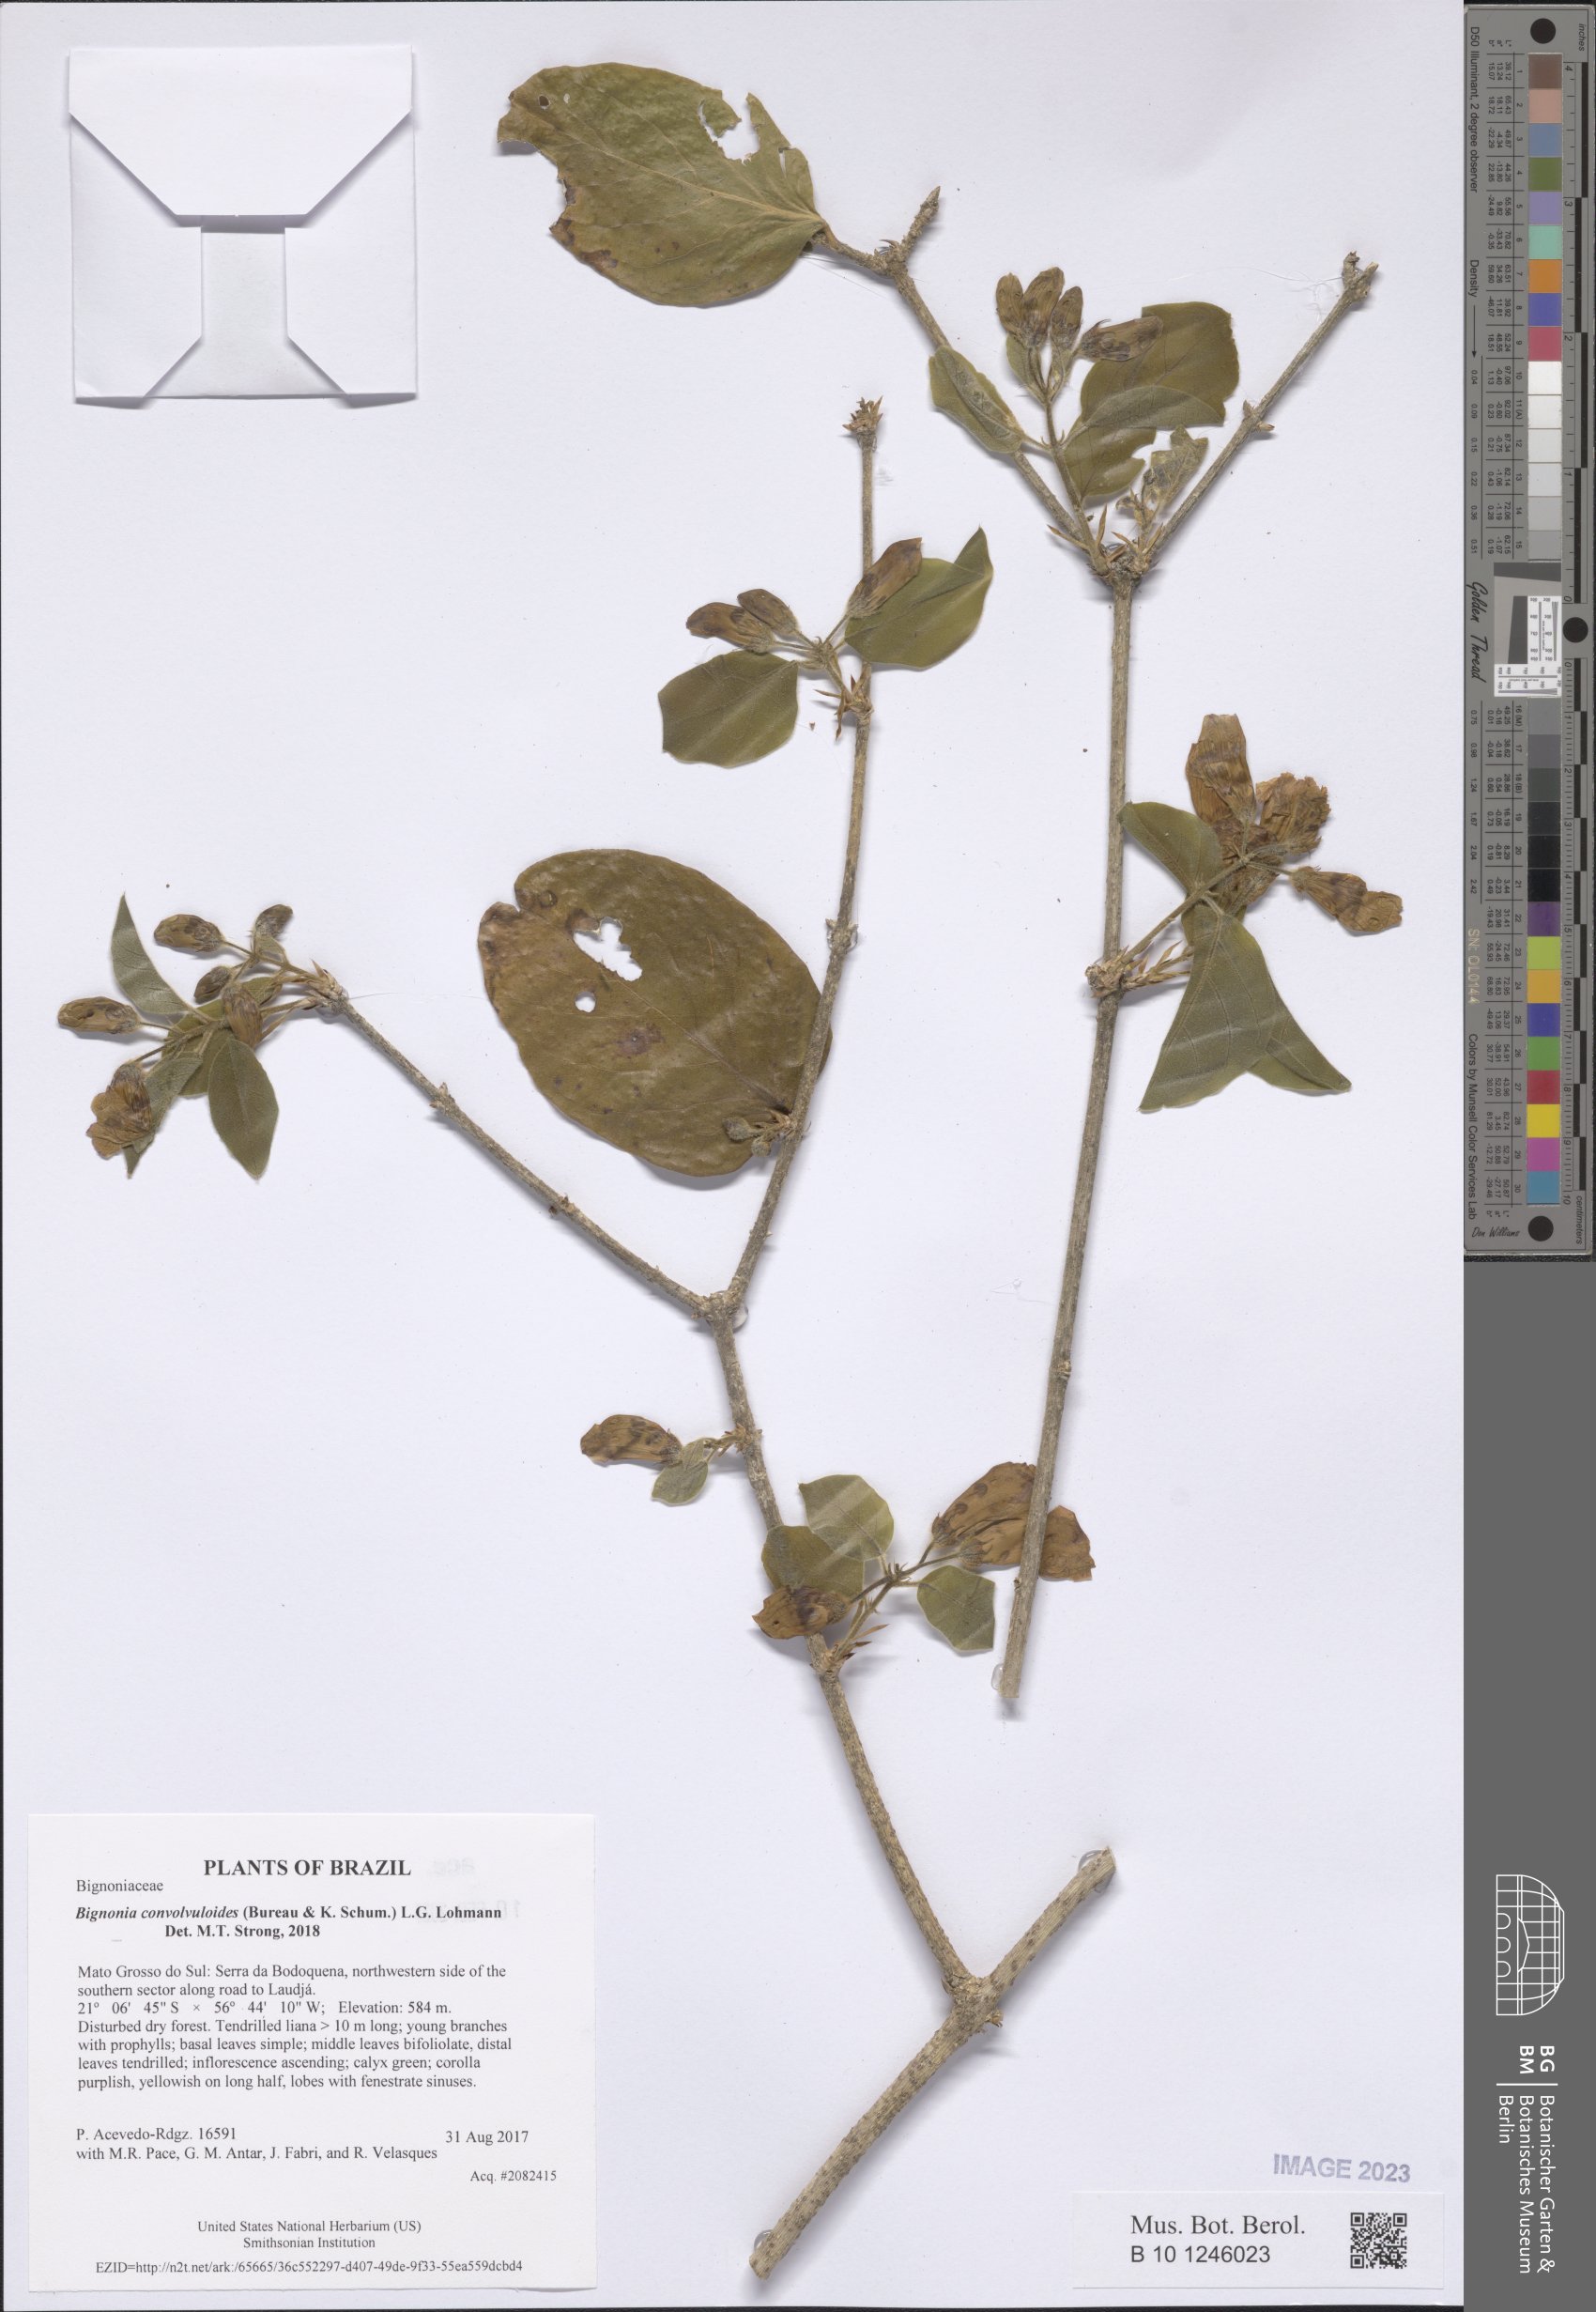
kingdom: Plantae
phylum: Tracheophyta
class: Magnoliopsida
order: Lamiales
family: Bignoniaceae
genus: Bignonia
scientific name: Bignonia convolvuloides
